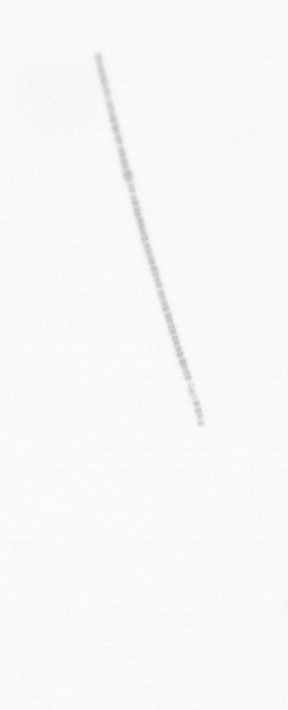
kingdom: Chromista
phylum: Ochrophyta
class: Bacillariophyceae
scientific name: Bacillariophyceae
